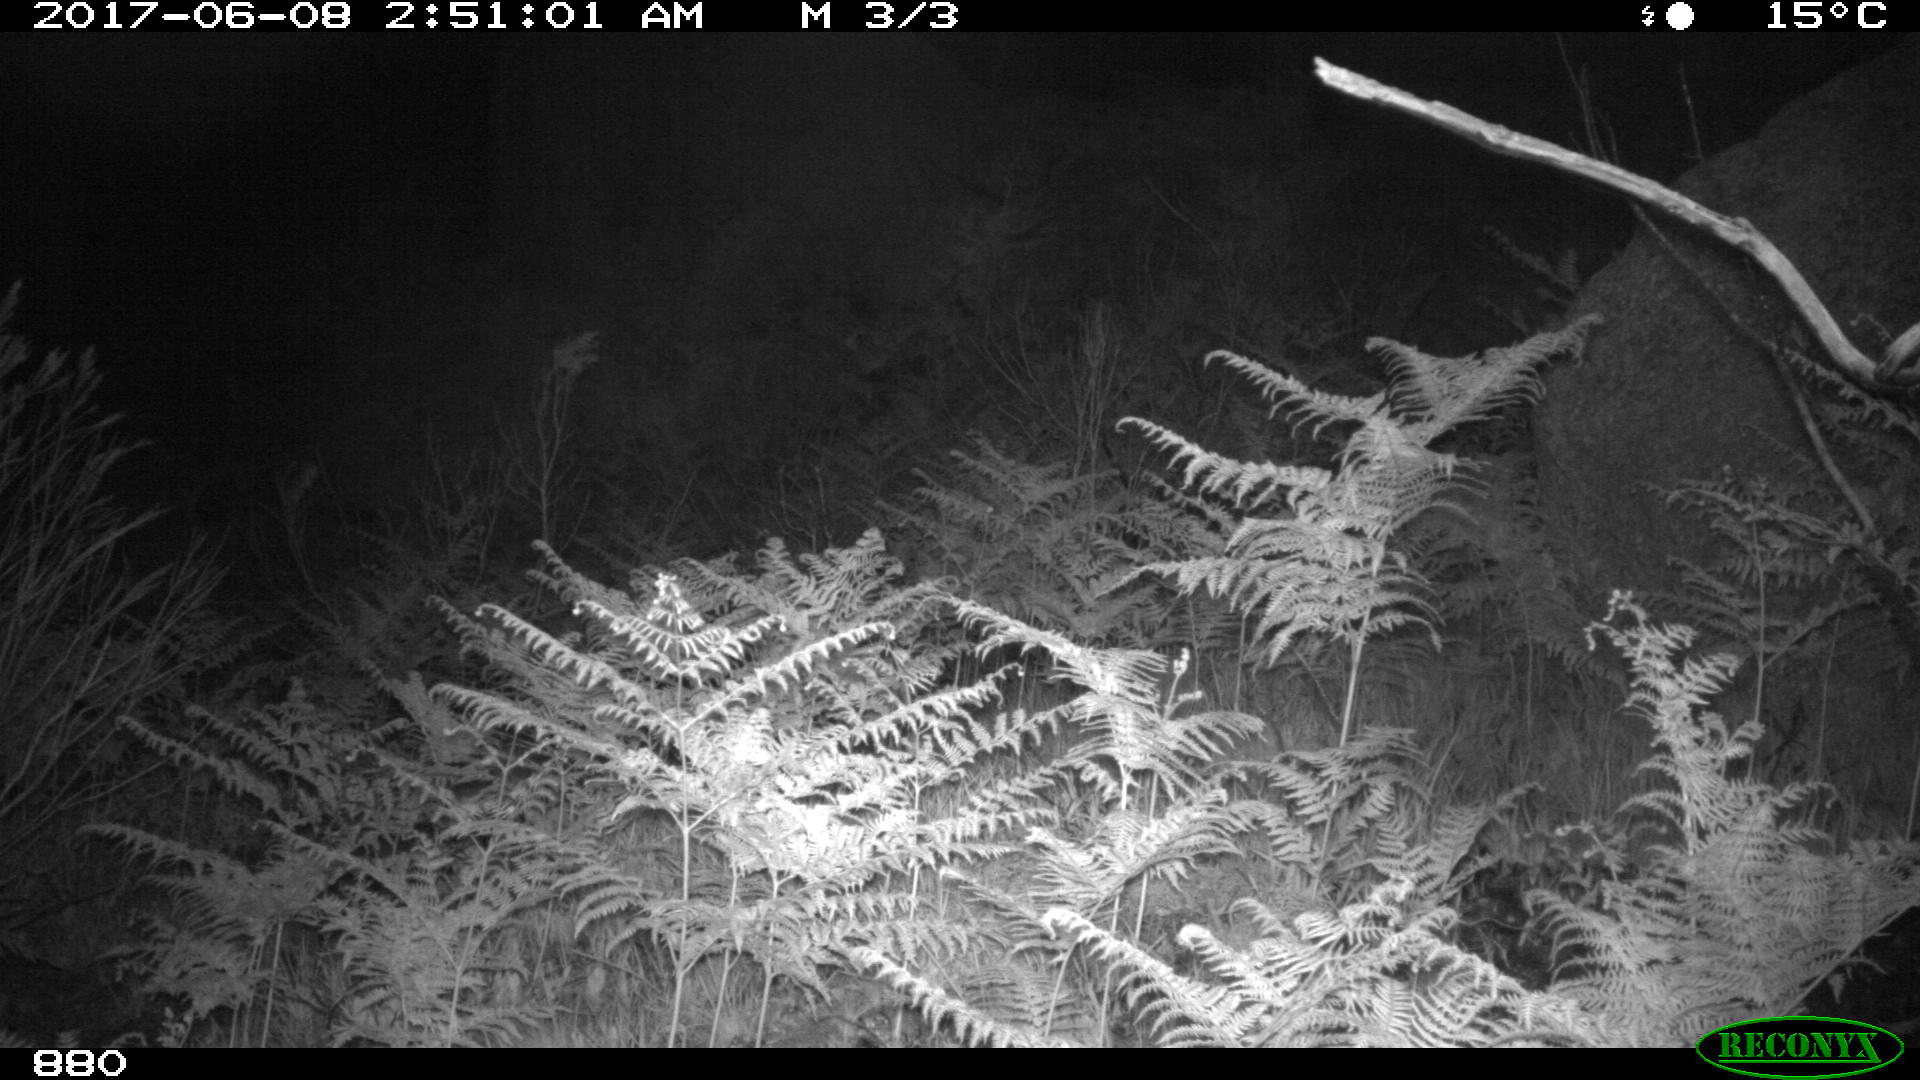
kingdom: Animalia
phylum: Chordata
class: Mammalia
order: Perissodactyla
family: Equidae
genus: Equus
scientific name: Equus caballus
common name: Horse
